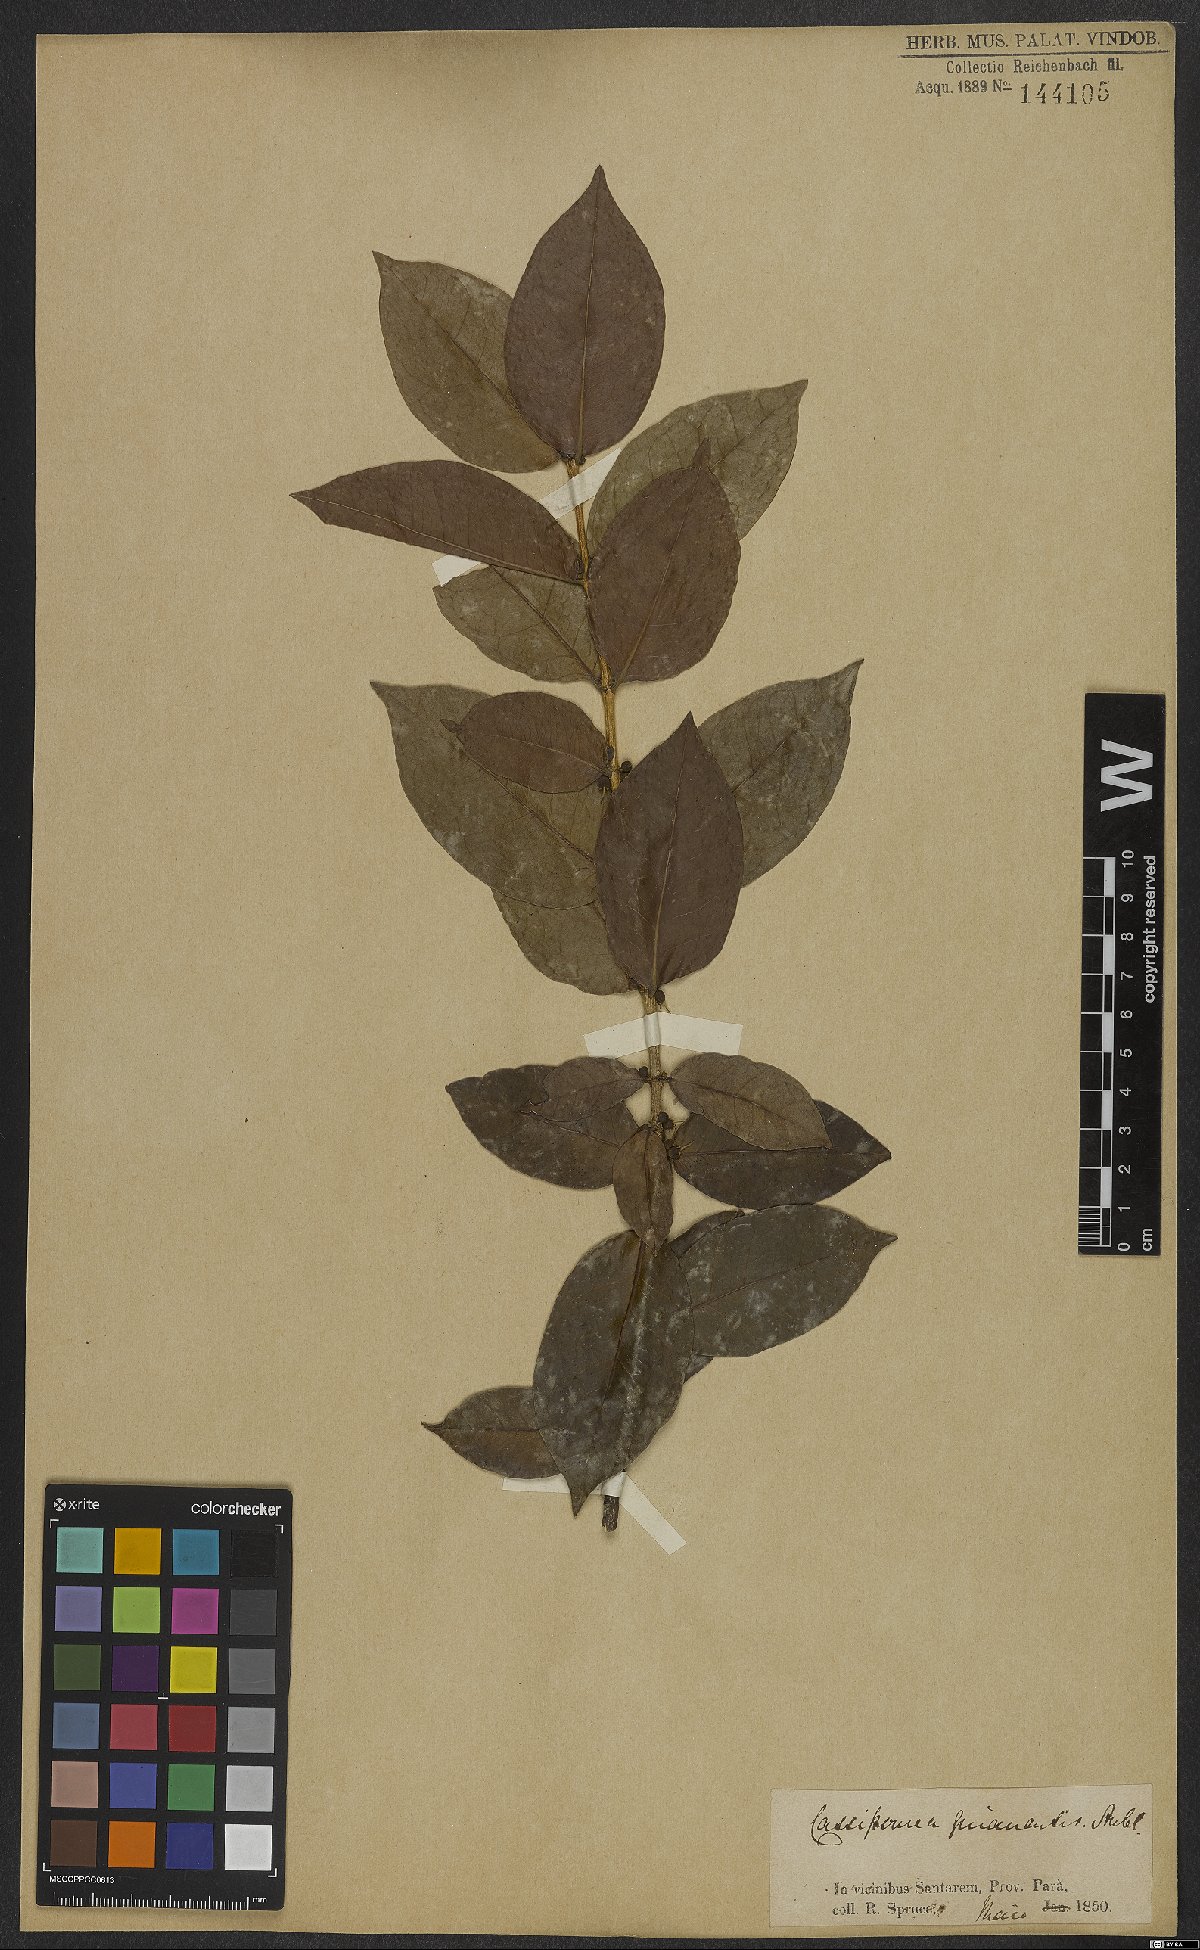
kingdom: Plantae
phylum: Tracheophyta
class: Magnoliopsida
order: Malpighiales
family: Rhizophoraceae
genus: Cassipourea
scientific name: Cassipourea guianensis
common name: Bastard waterwood
